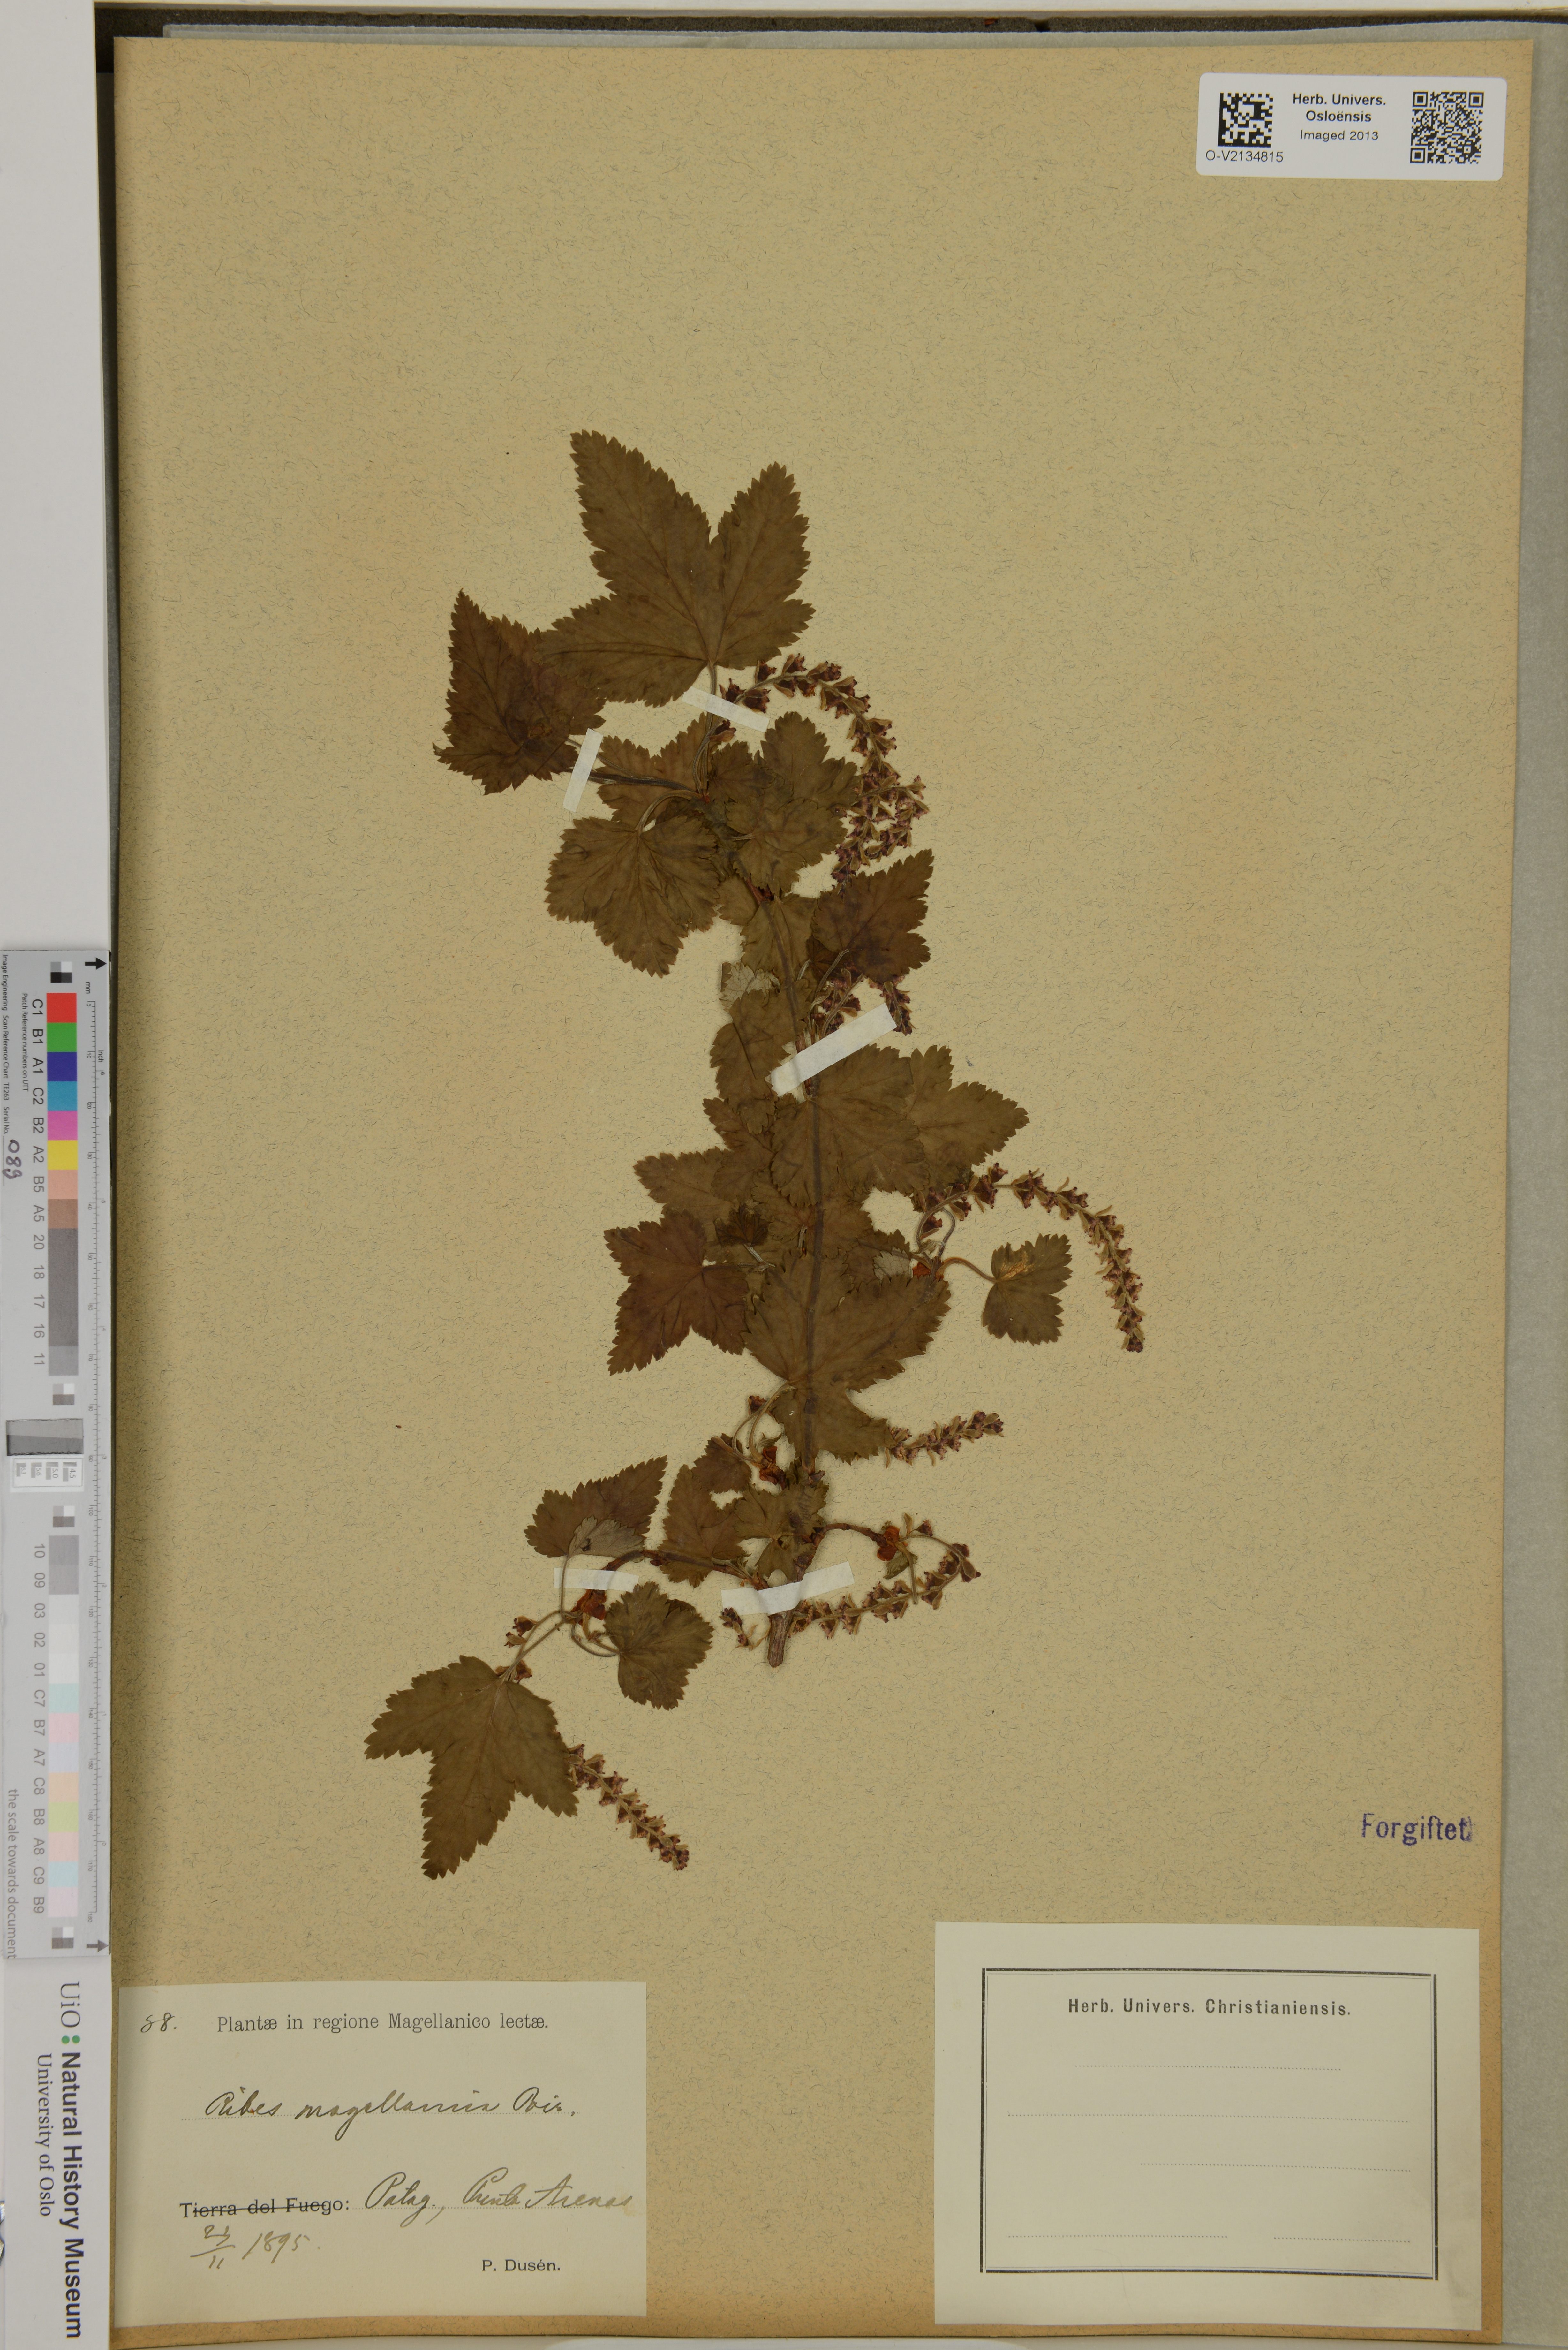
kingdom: Plantae
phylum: Tracheophyta
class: Magnoliopsida
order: Saxifragales
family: Grossulariaceae
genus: Ribes
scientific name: Ribes magellanicum
